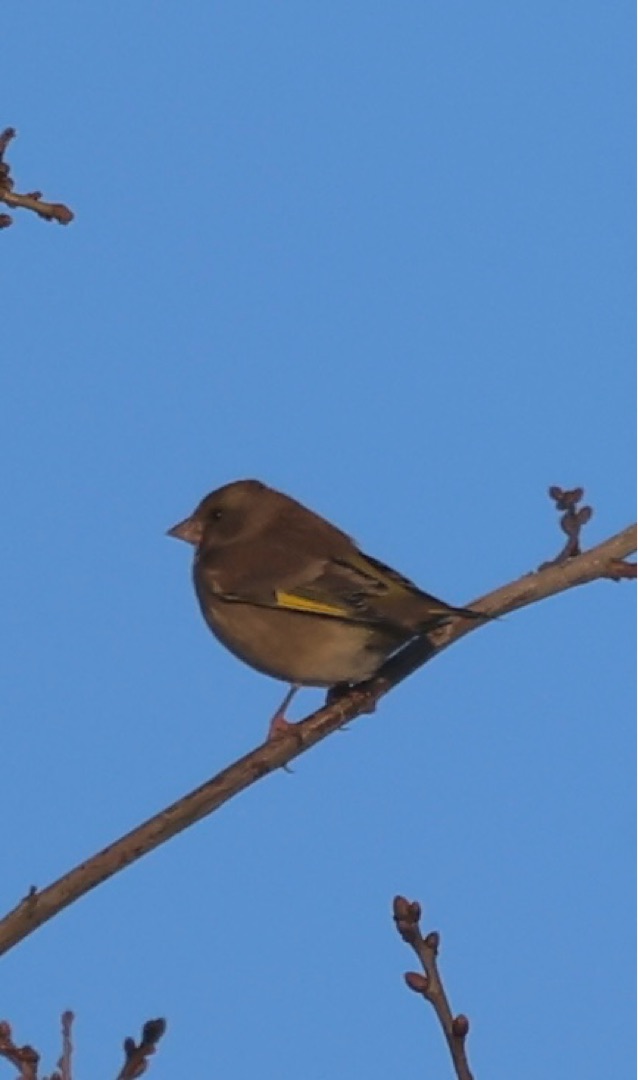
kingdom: Plantae
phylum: Tracheophyta
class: Liliopsida
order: Poales
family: Poaceae
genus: Chloris
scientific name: Chloris chloris
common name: Grønirisk
